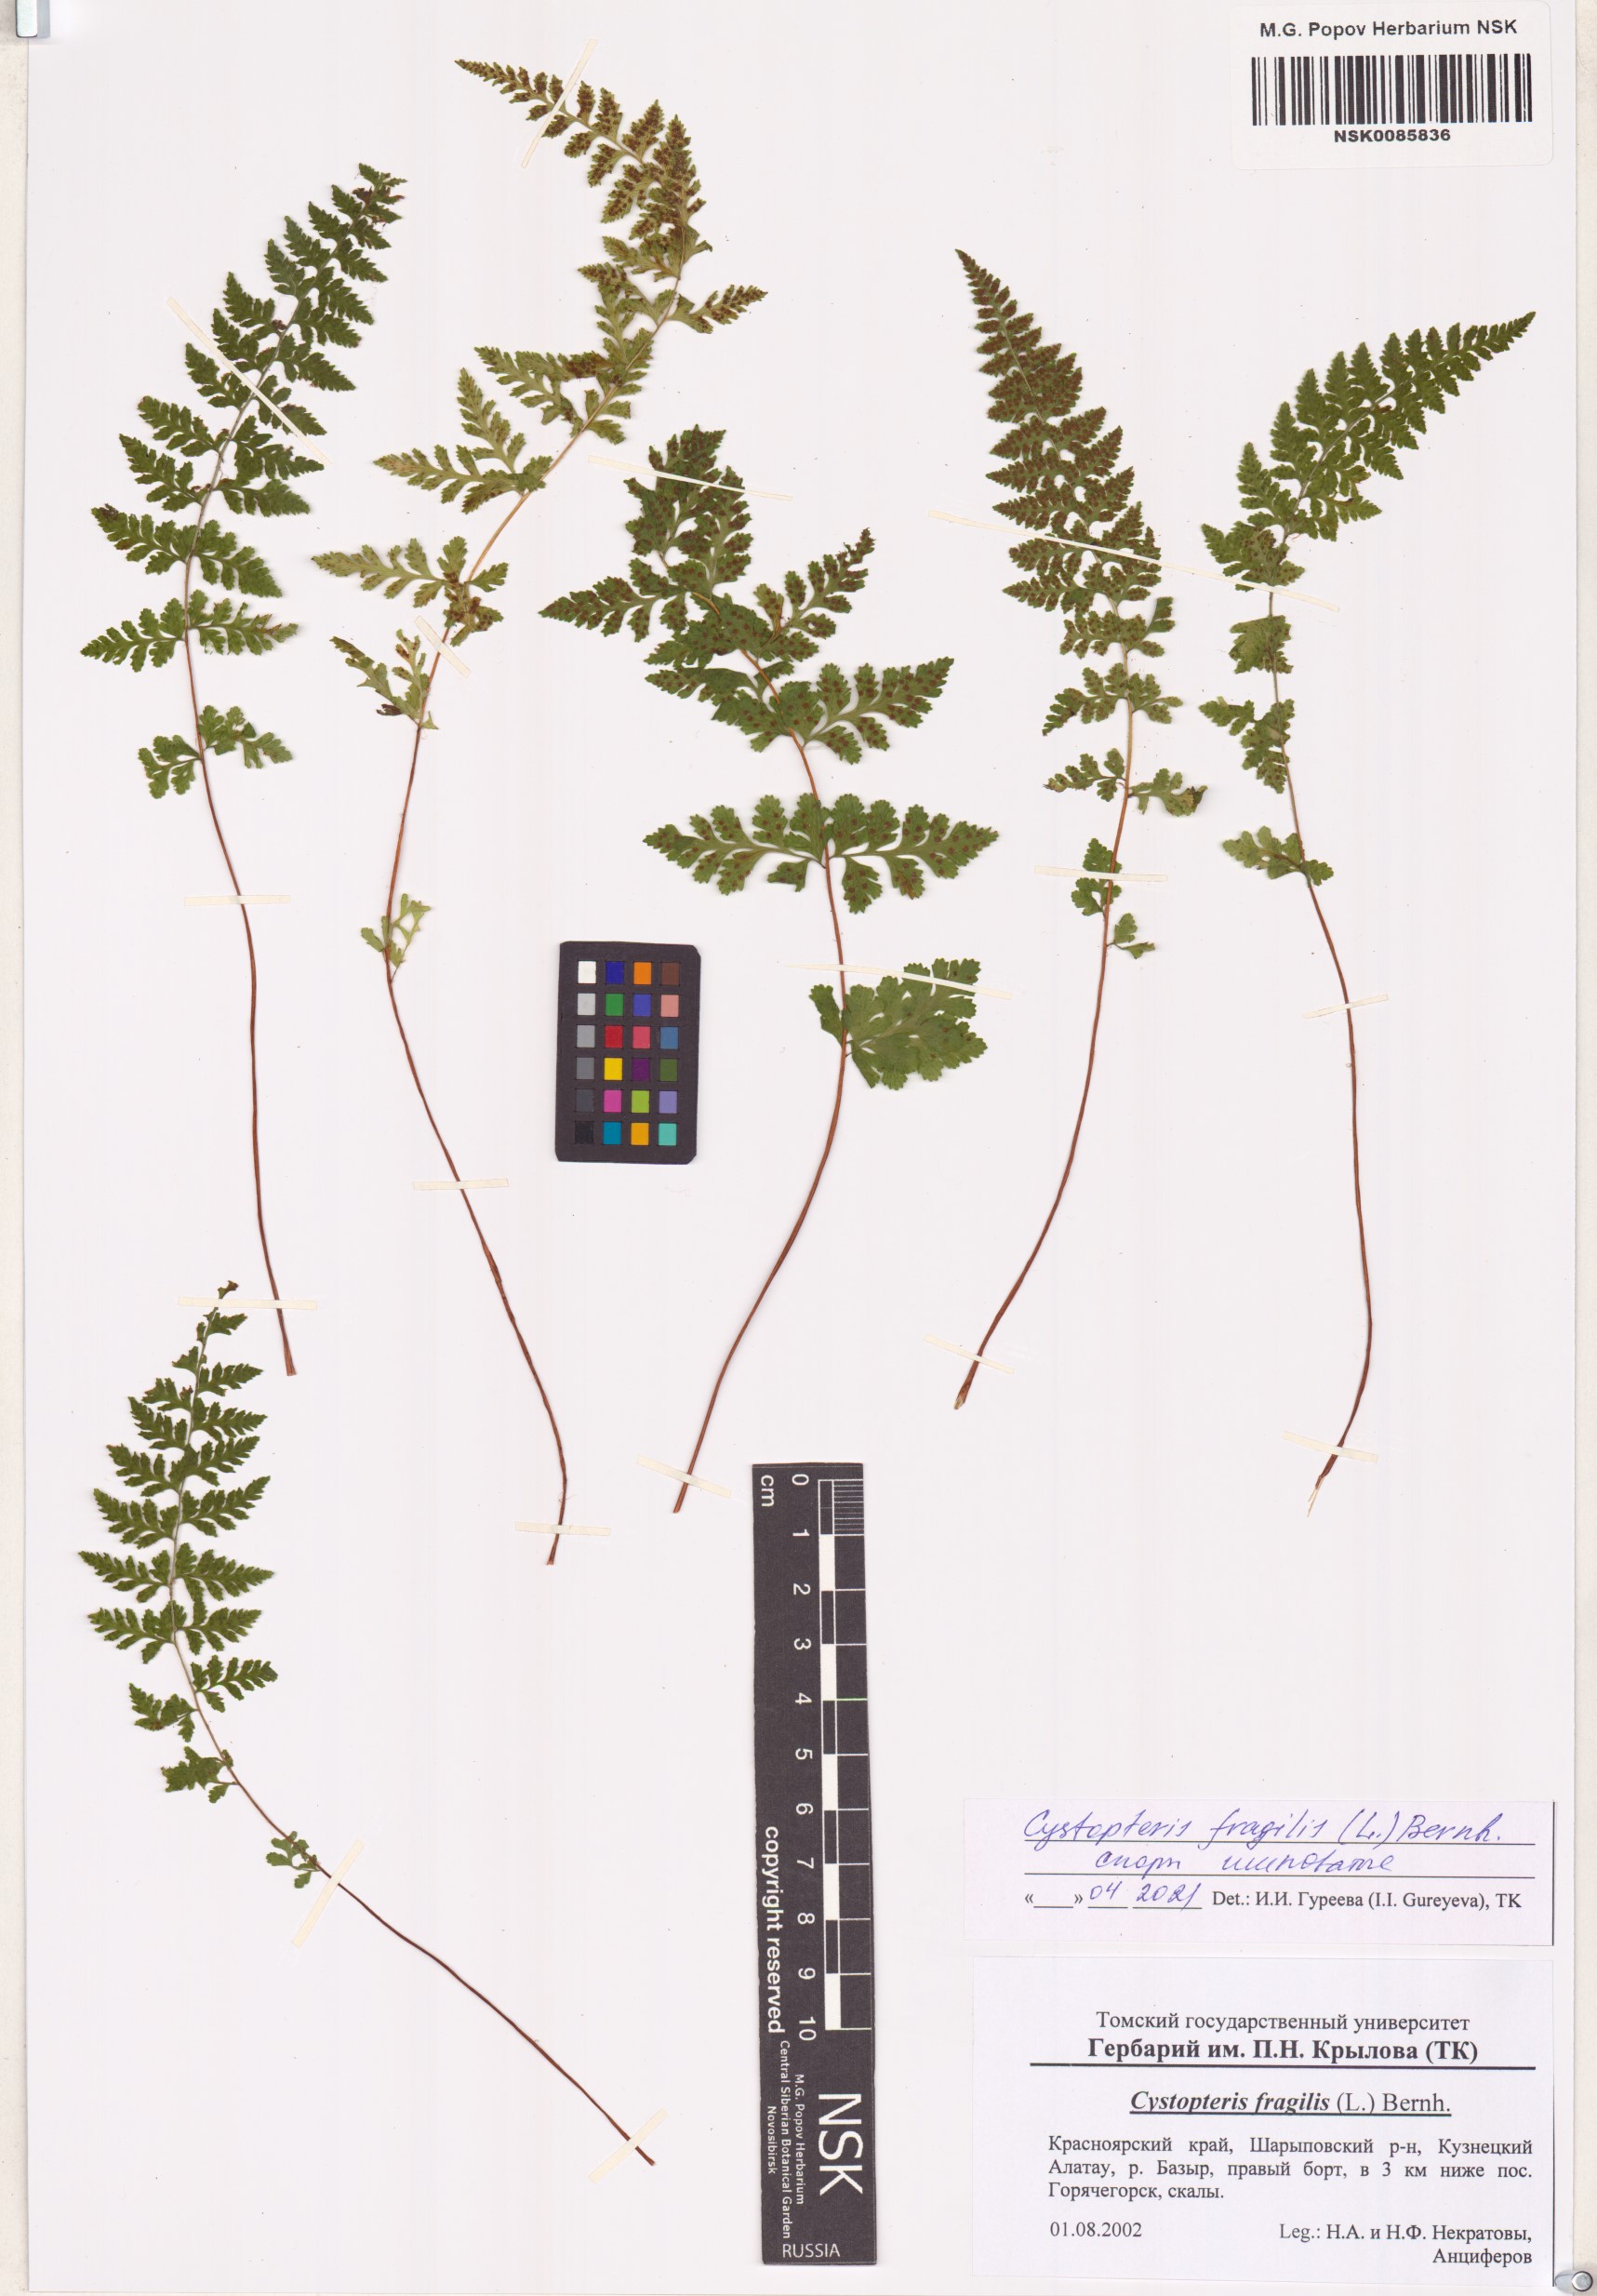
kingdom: Plantae
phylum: Tracheophyta
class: Polypodiopsida
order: Polypodiales
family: Cystopteridaceae
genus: Cystopteris
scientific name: Cystopteris fragilis
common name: Brittle bladder fern
